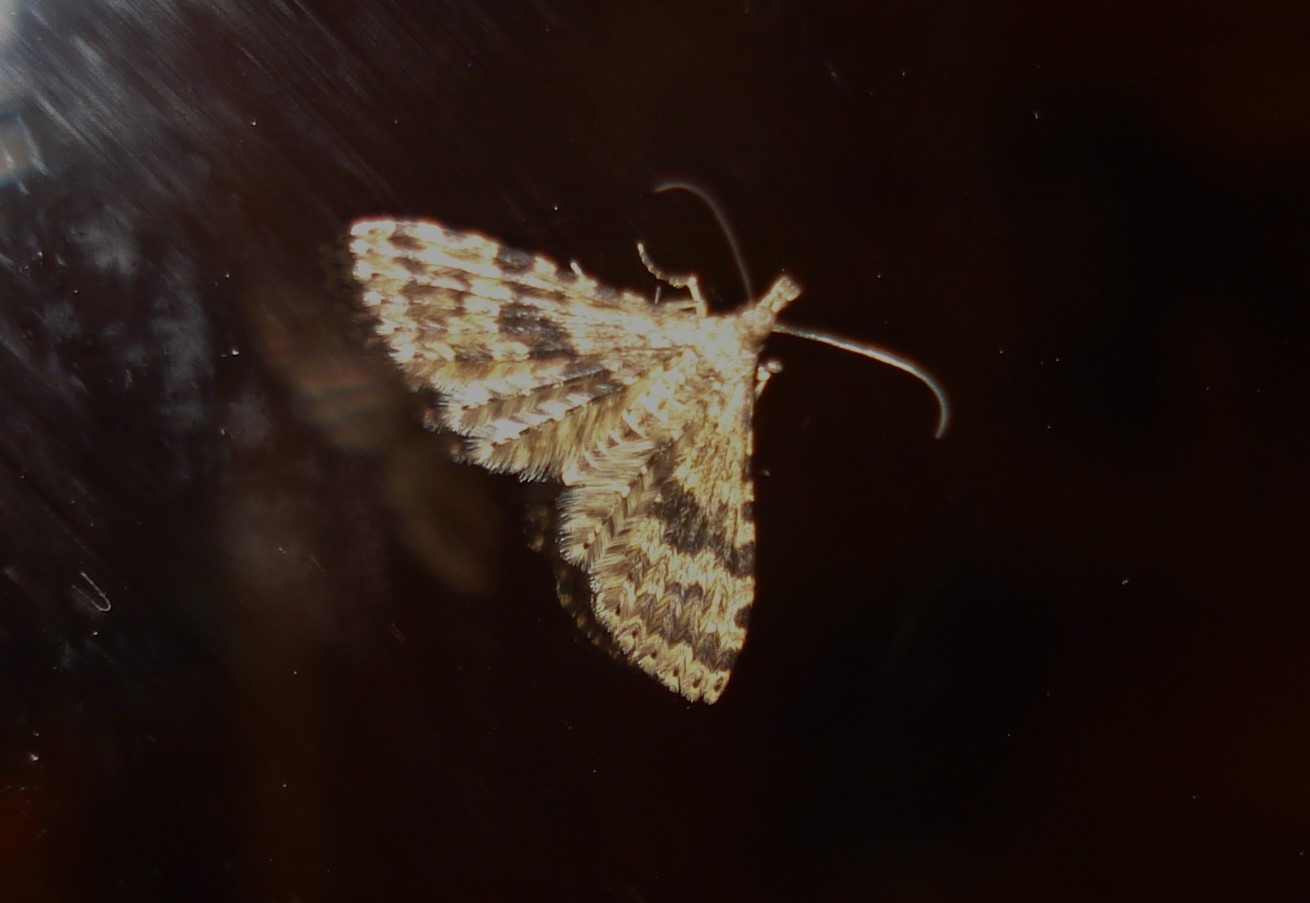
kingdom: Animalia
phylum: Arthropoda
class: Insecta
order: Lepidoptera
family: Alucitidae
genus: Alucita
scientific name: Alucita hexadactyla
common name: Kaprifoliefjermøl
